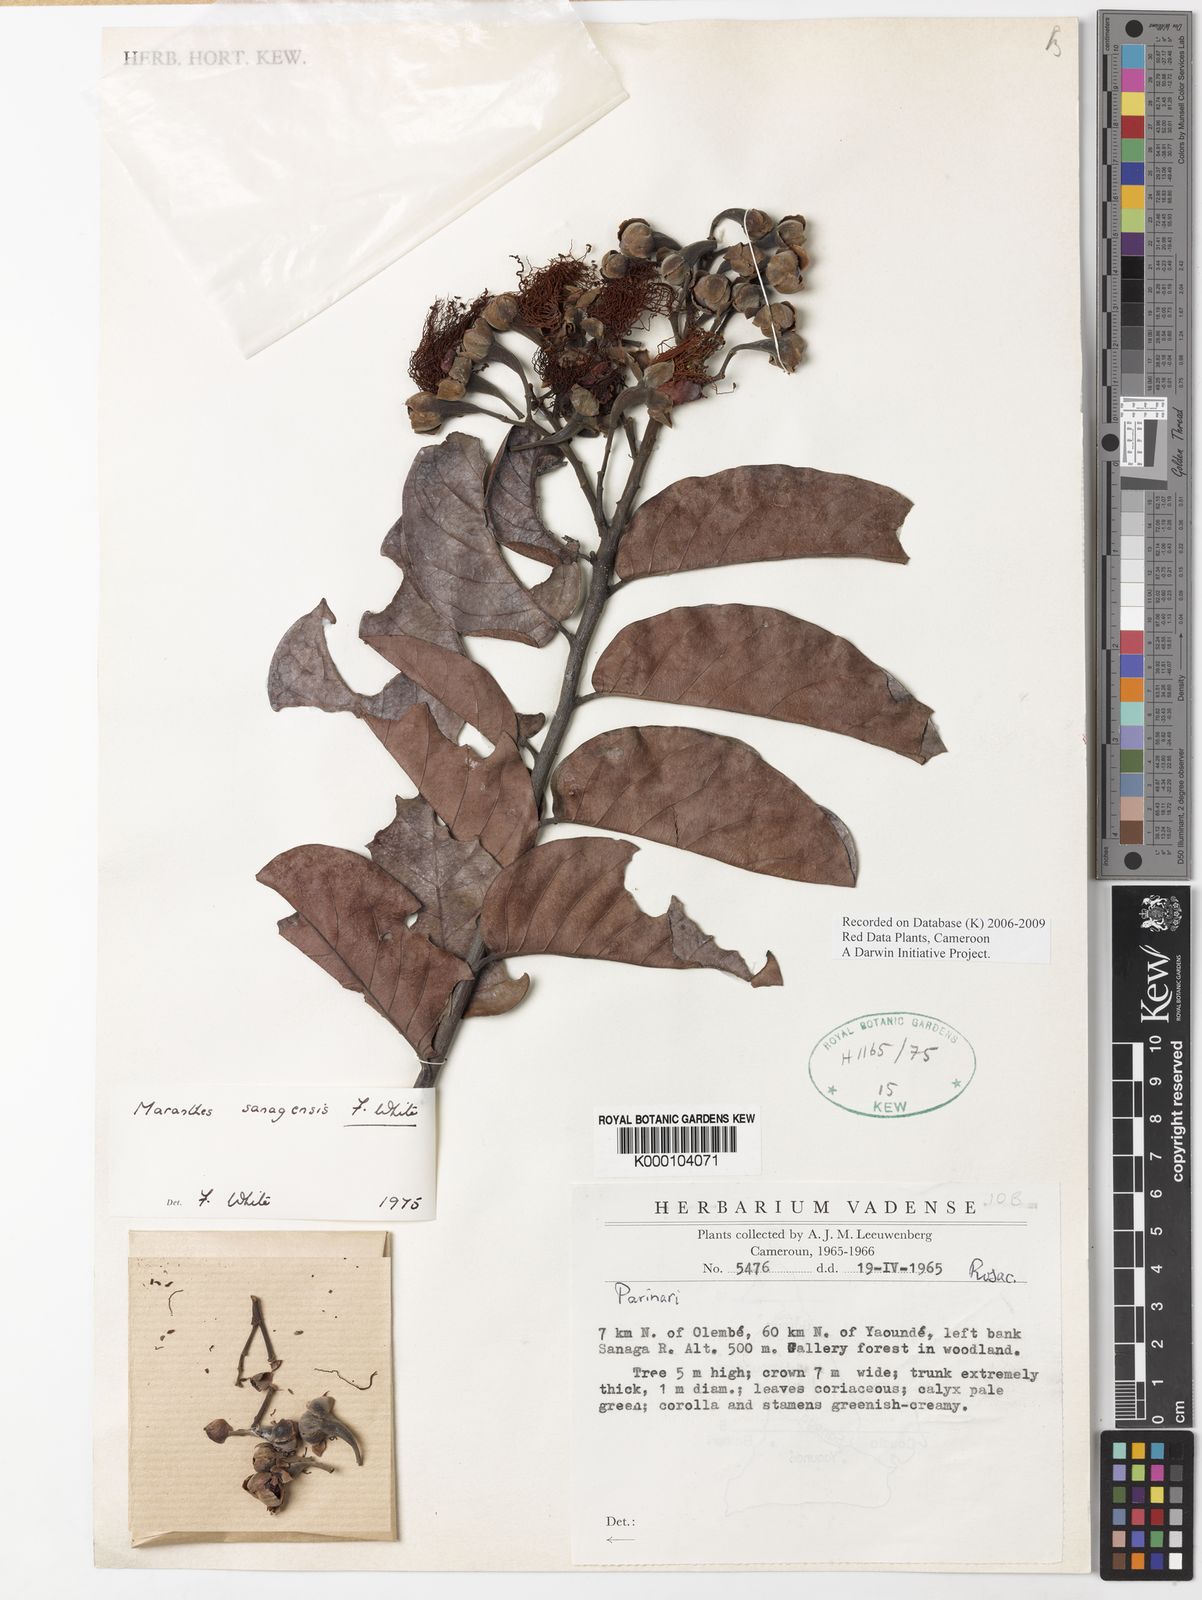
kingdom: Plantae
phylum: Tracheophyta
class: Magnoliopsida
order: Malpighiales
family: Chrysobalanaceae
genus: Maranthes
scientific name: Maranthes sanagensis
